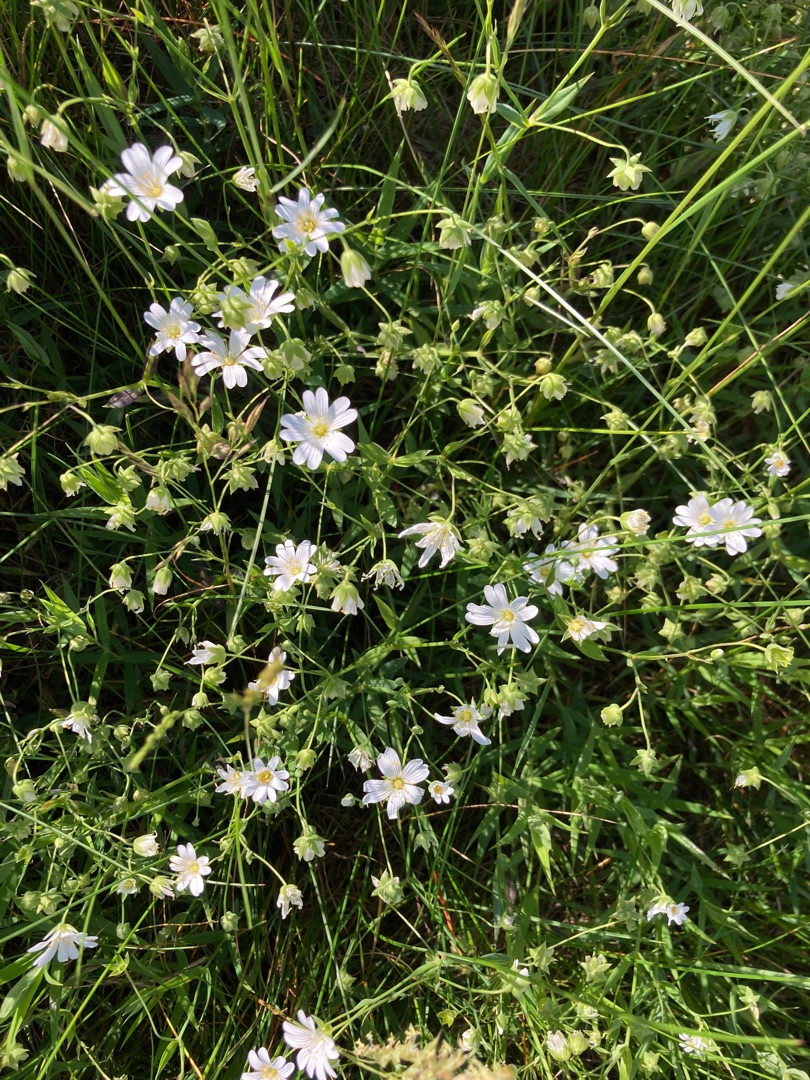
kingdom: Plantae
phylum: Tracheophyta
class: Magnoliopsida
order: Caryophyllales
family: Caryophyllaceae
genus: Rabelera
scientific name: Rabelera holostea
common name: Stor fladstjerne
